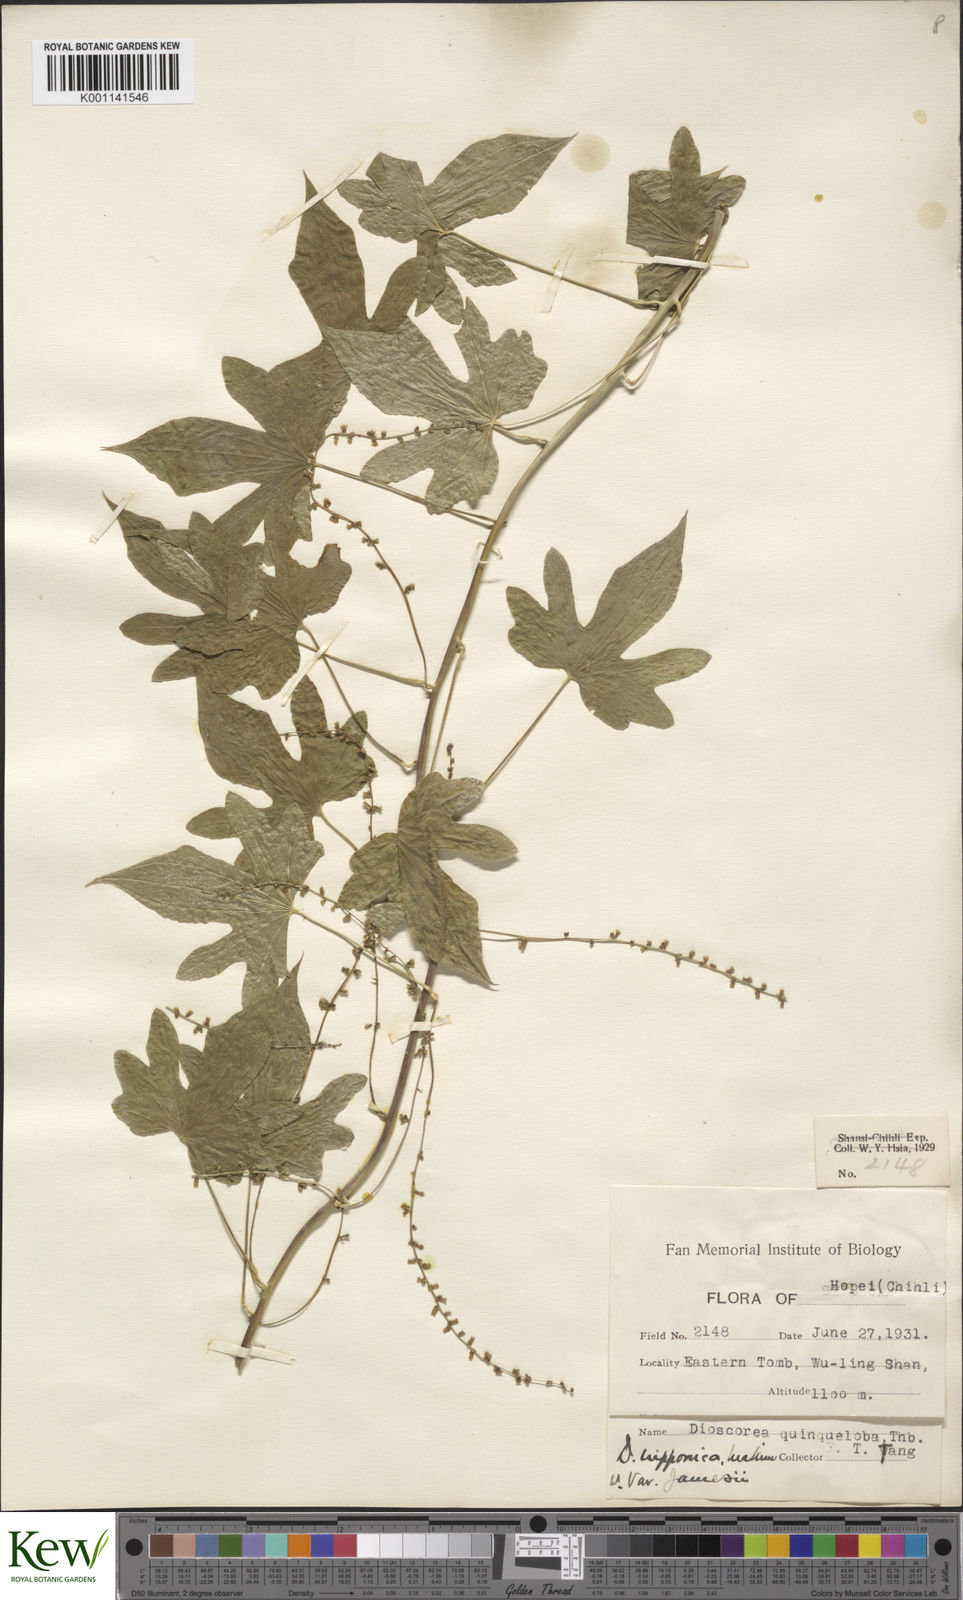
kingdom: Plantae
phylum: Tracheophyta
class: Liliopsida
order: Dioscoreales
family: Dioscoreaceae
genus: Dioscorea
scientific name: Dioscorea nipponica
